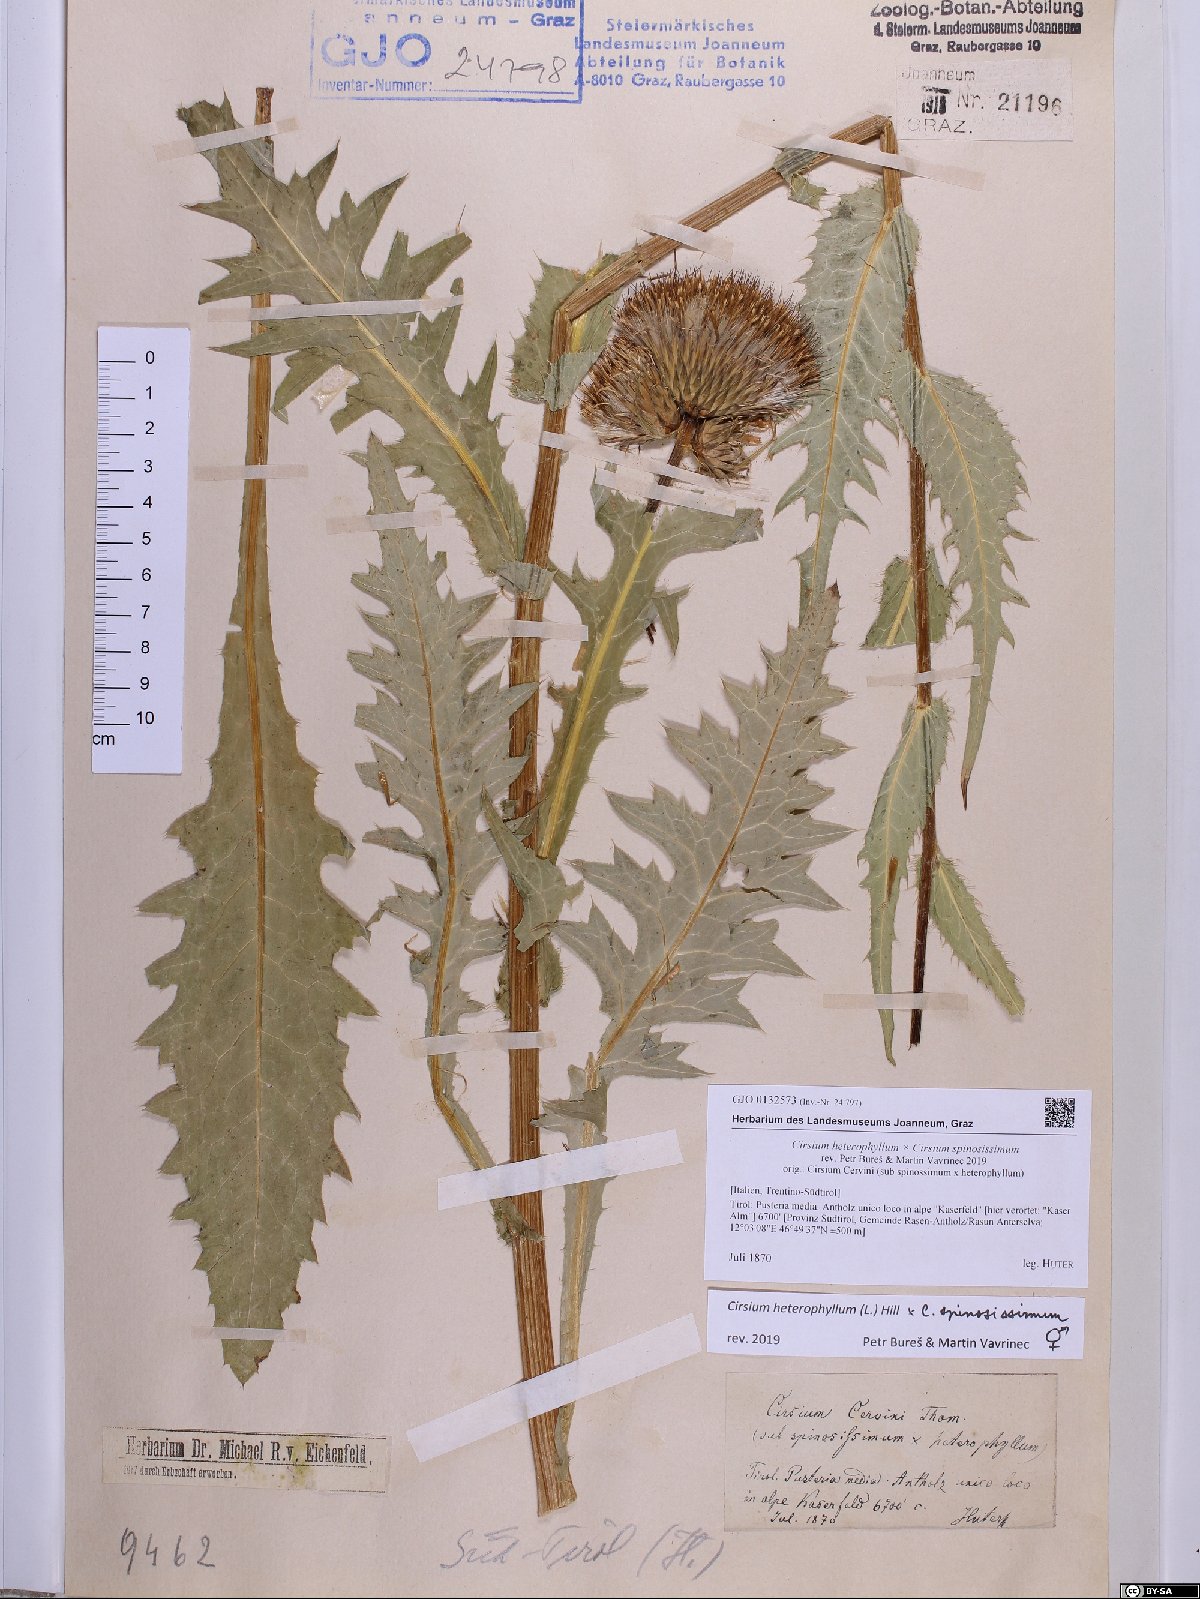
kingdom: Plantae
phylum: Tracheophyta
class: Magnoliopsida
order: Asterales
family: Asteraceae
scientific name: Asteraceae
